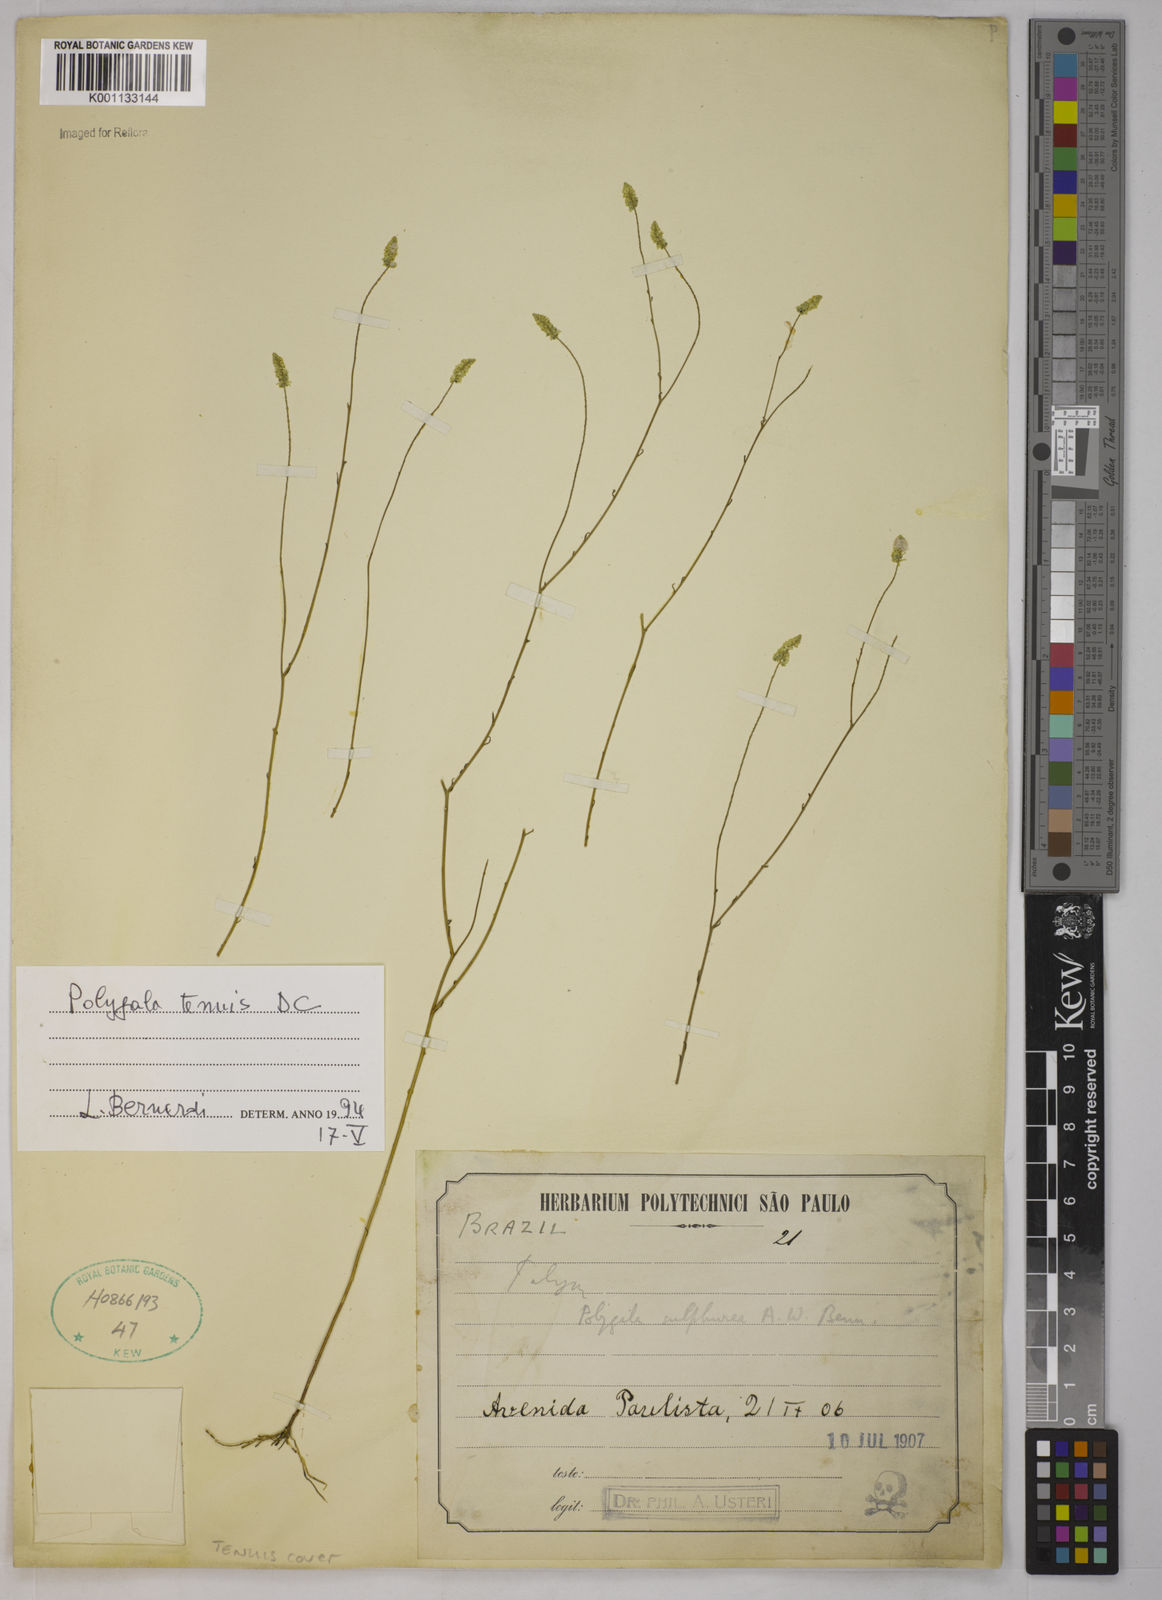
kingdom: Plantae
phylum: Tracheophyta
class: Magnoliopsida
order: Fabales
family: Polygalaceae
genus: Polygala
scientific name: Polygala tenuis
